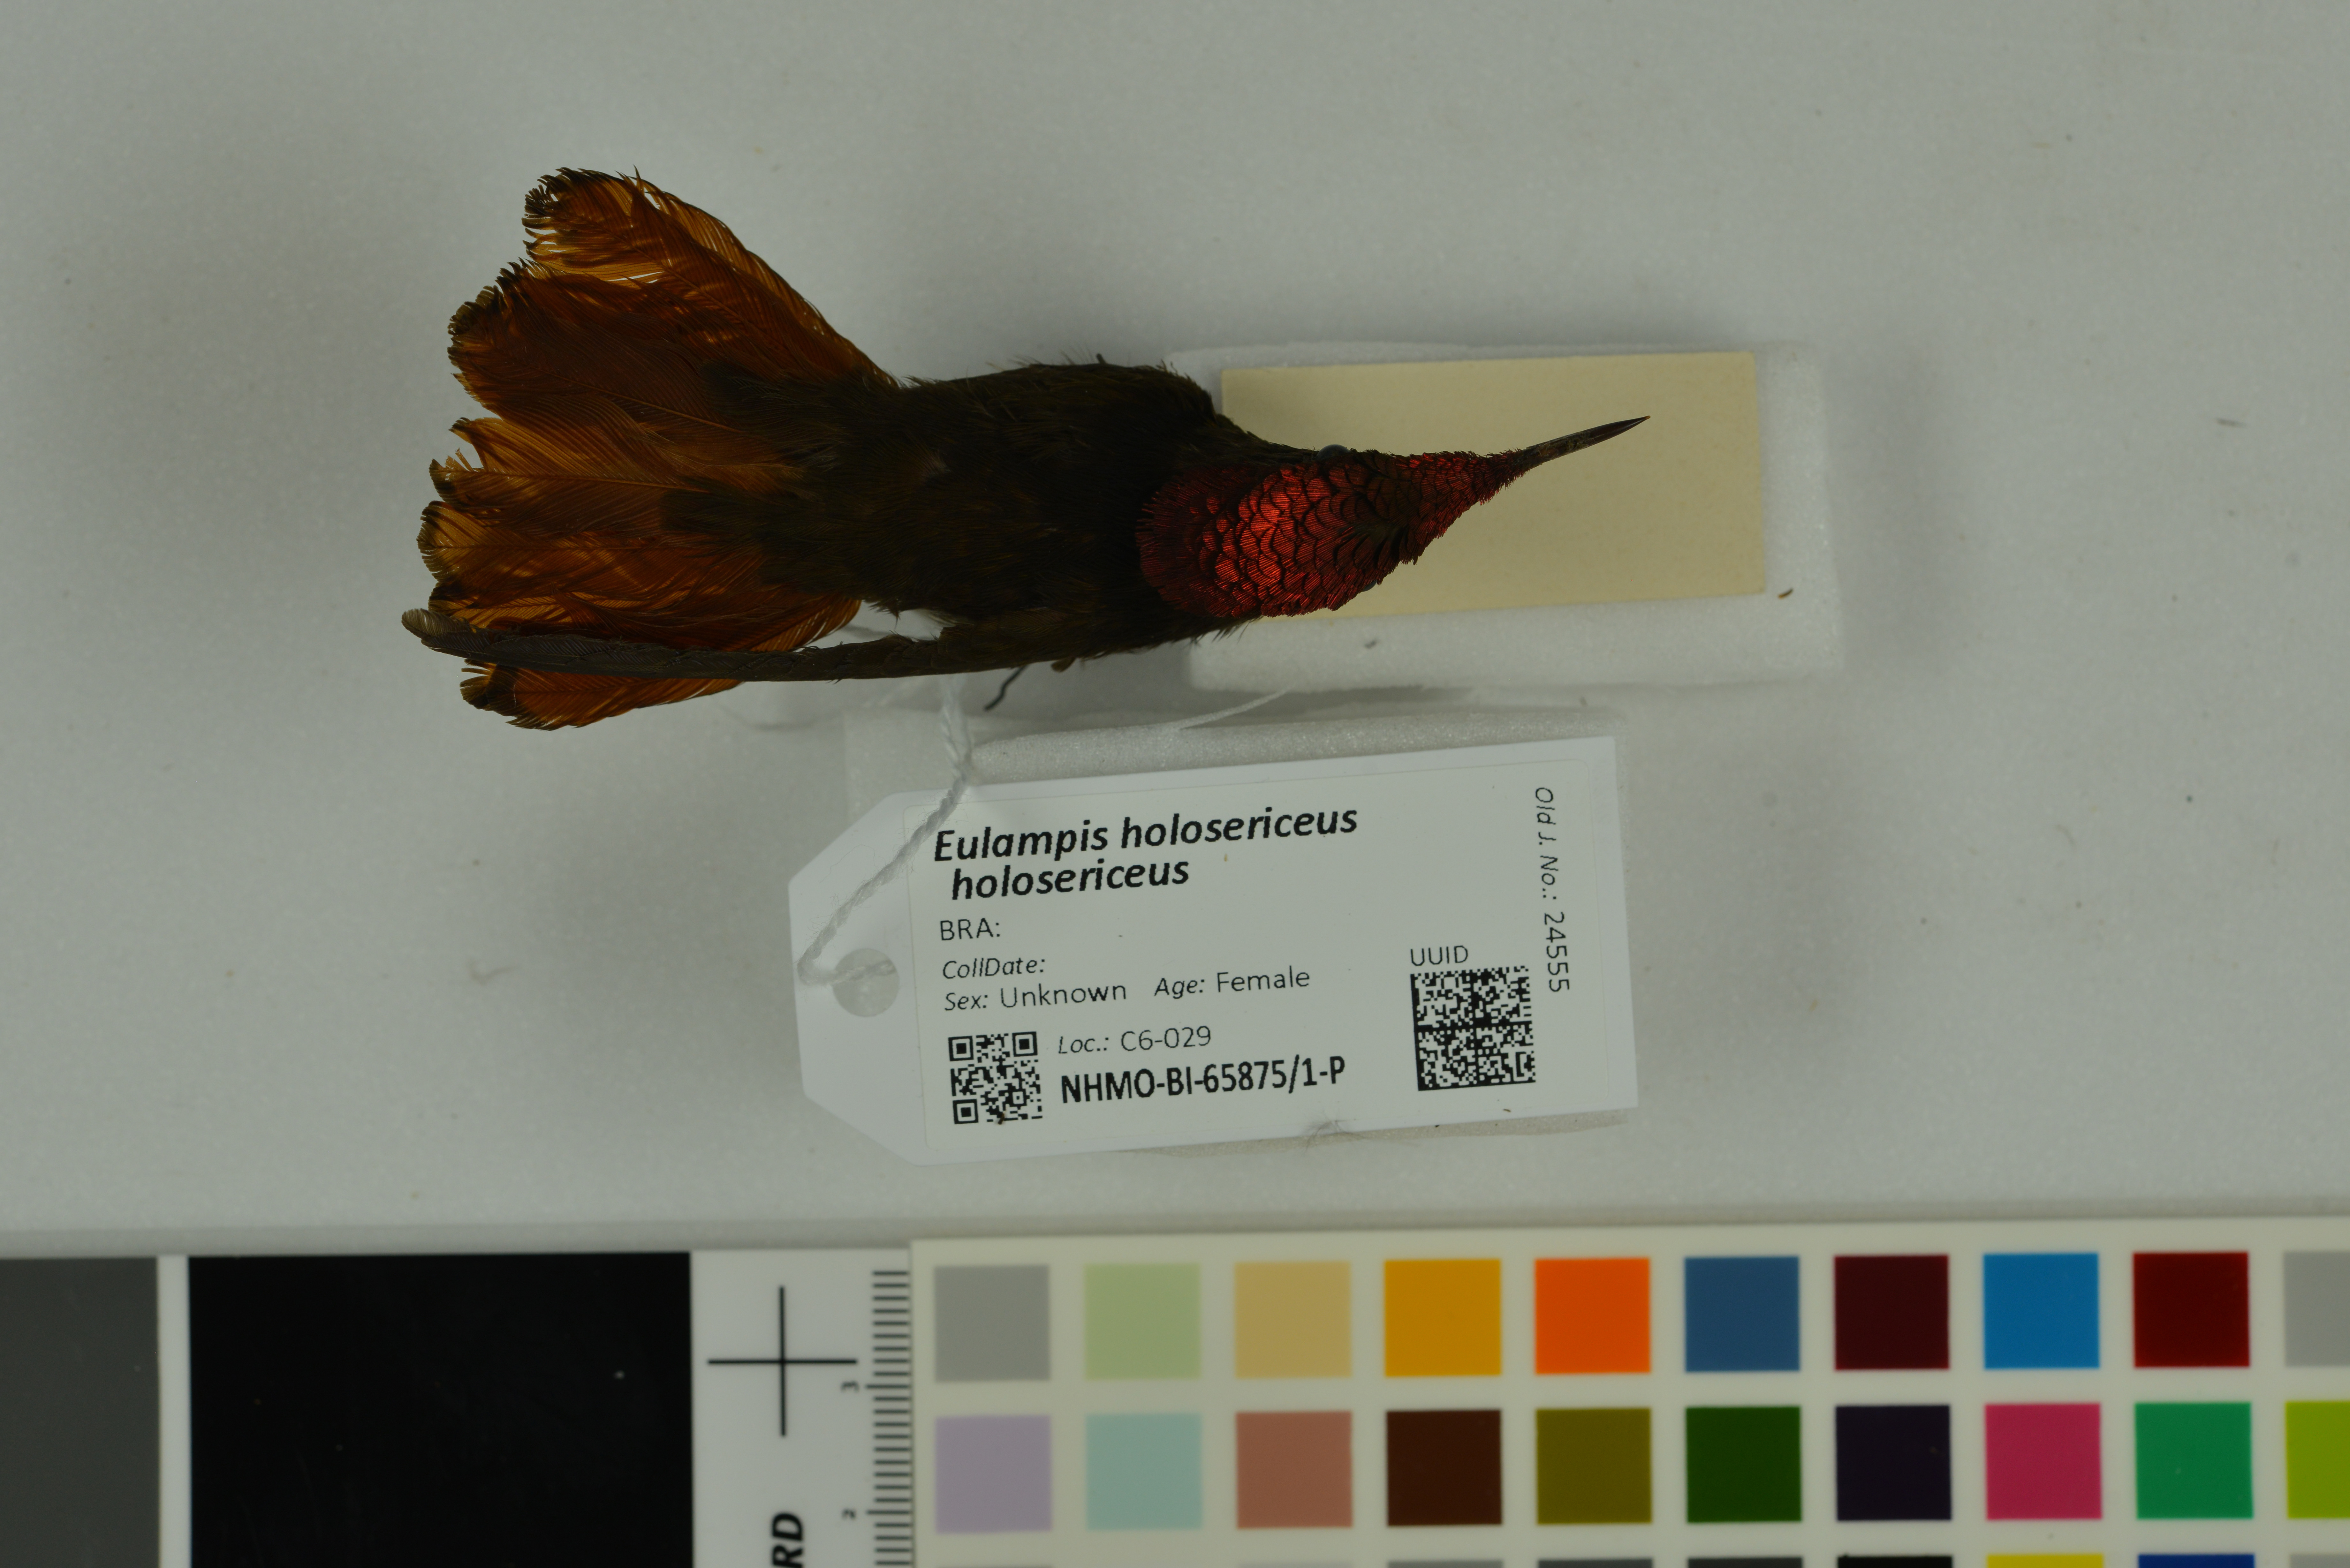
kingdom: Animalia
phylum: Chordata
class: Aves
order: Apodiformes
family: Trochilidae
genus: Eulampis
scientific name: Eulampis holosericeus
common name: Green-throated carib
